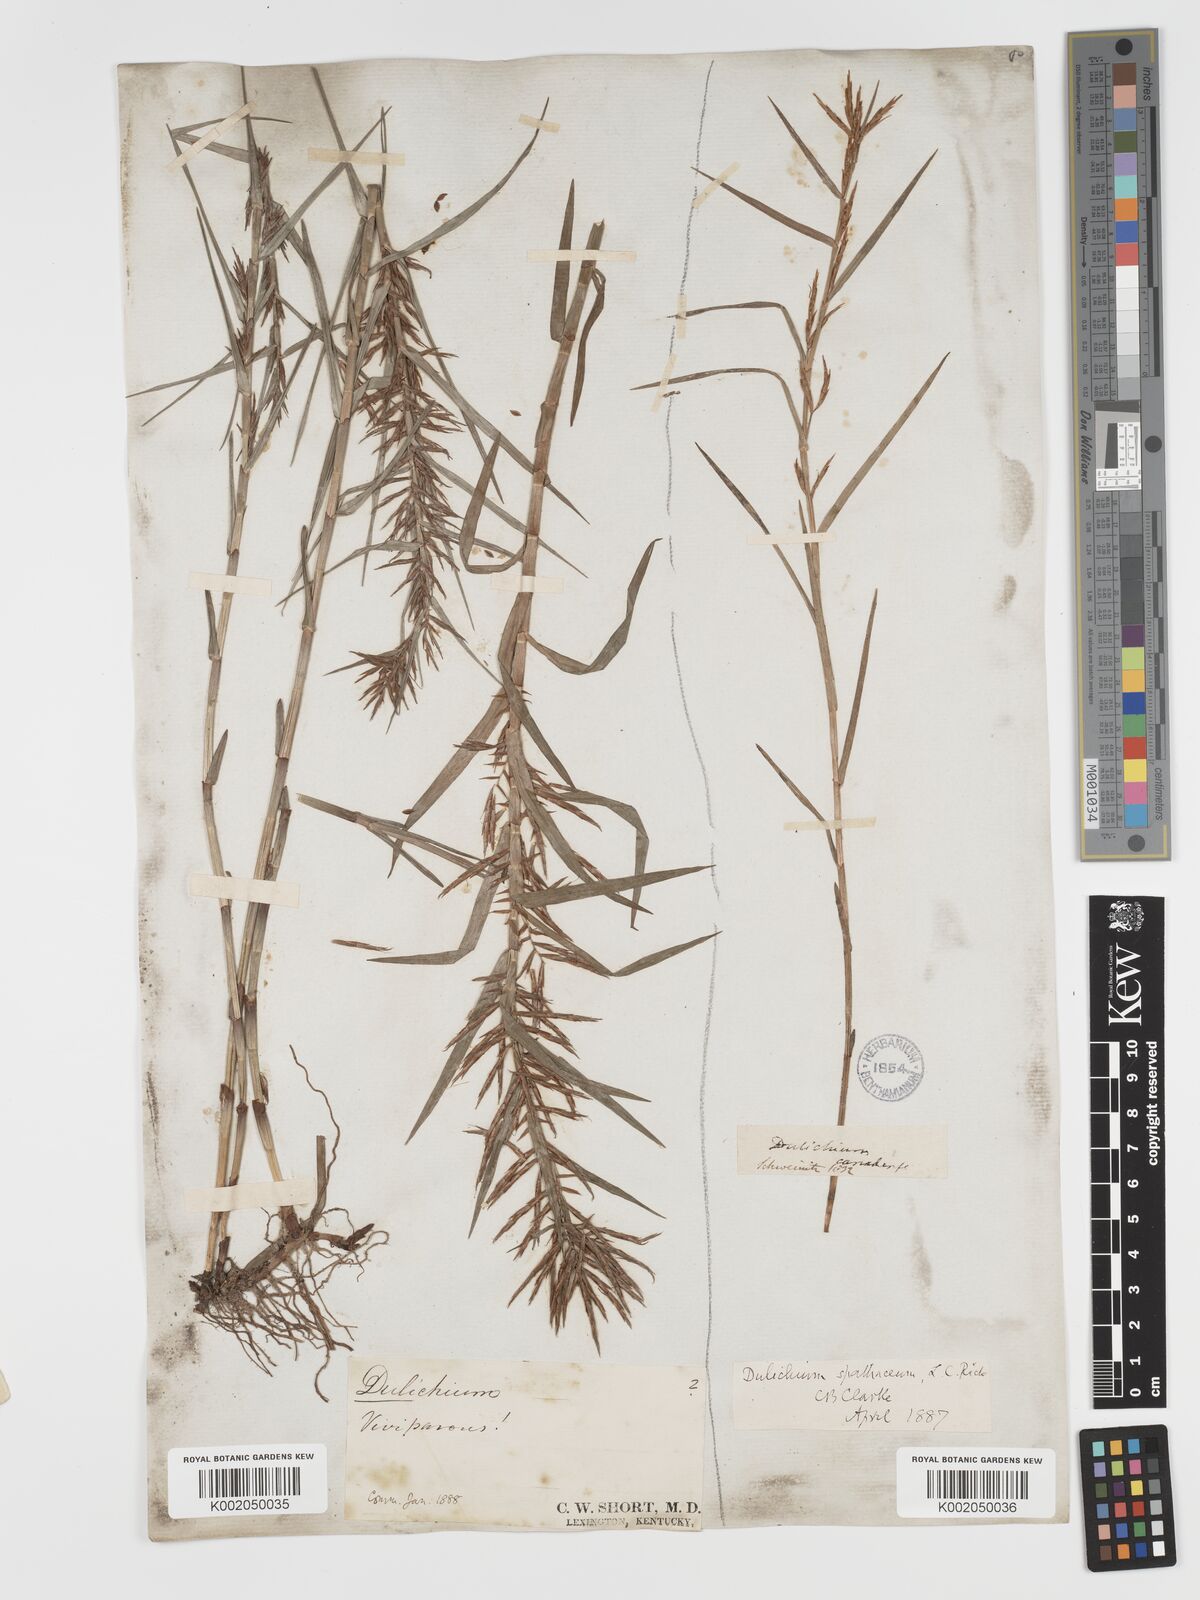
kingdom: Plantae
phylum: Tracheophyta
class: Liliopsida
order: Poales
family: Cyperaceae
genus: Dulichium
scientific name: Dulichium arundinaceum
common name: Three-way sedge
